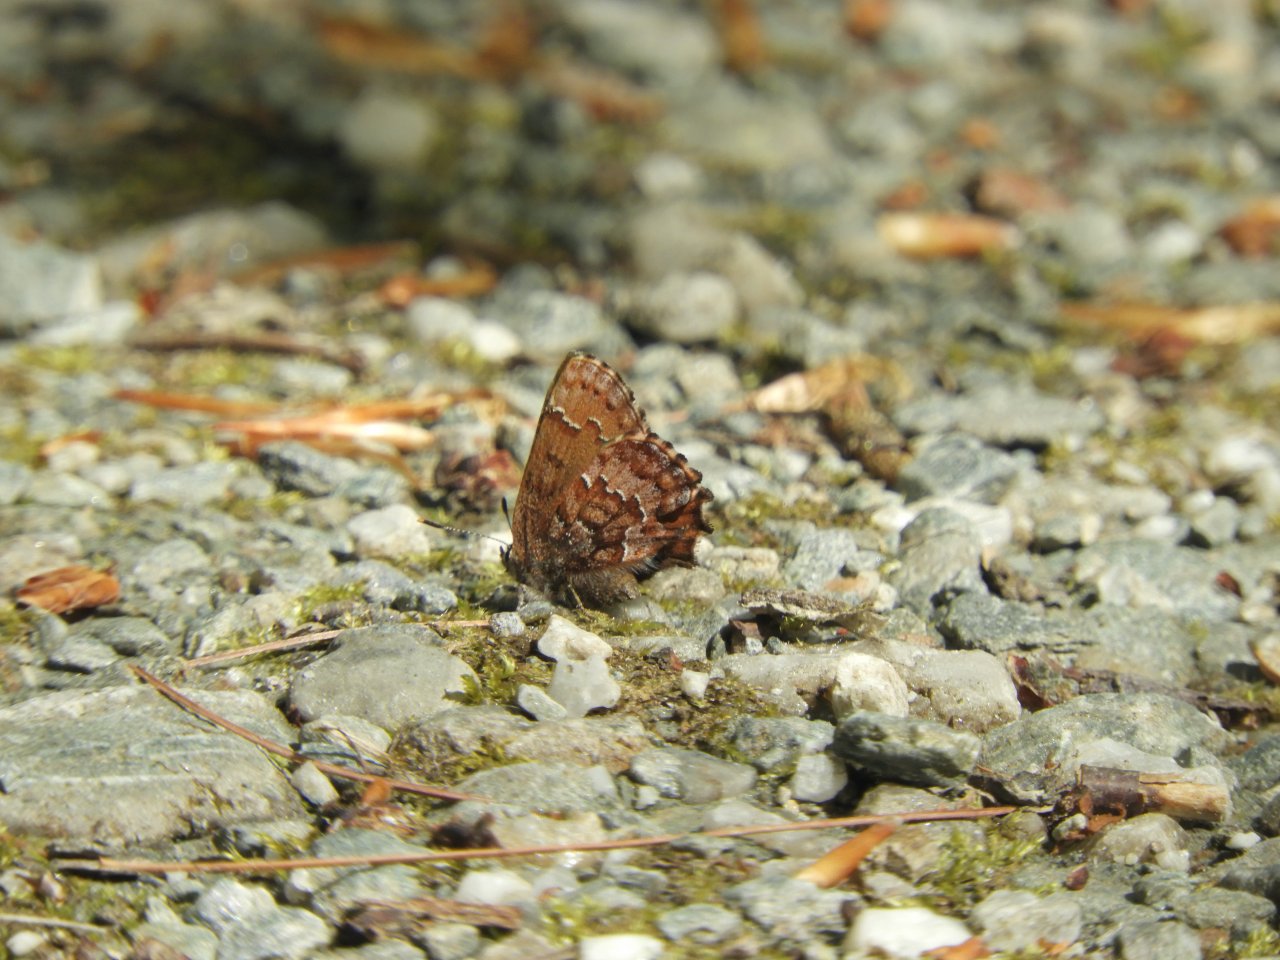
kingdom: Animalia
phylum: Arthropoda
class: Insecta
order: Lepidoptera
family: Lycaenidae
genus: Incisalia
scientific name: Incisalia niphon
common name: Eastern Pine Elfin
